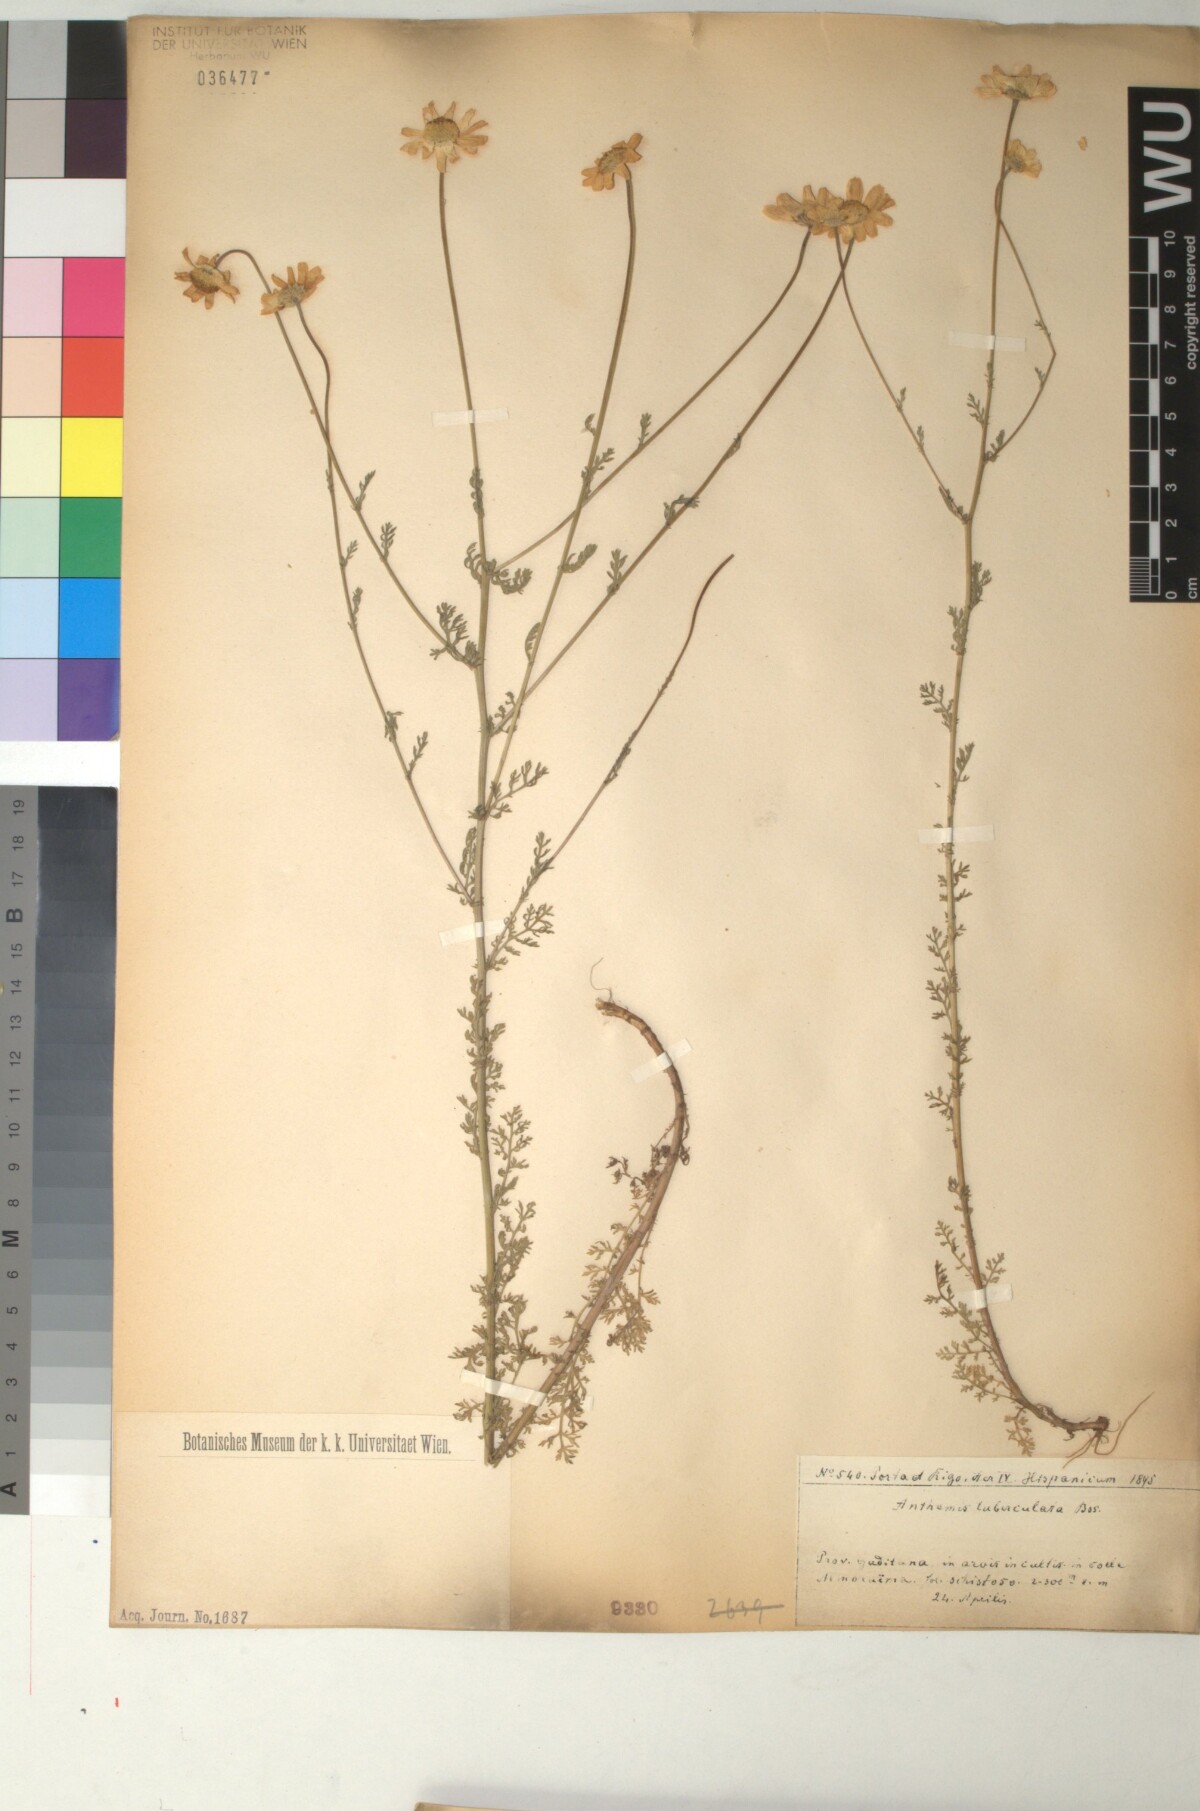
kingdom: Plantae
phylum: Tracheophyta
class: Magnoliopsida
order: Asterales
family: Asteraceae
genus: Anthemis
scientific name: Anthemis pedunculata
